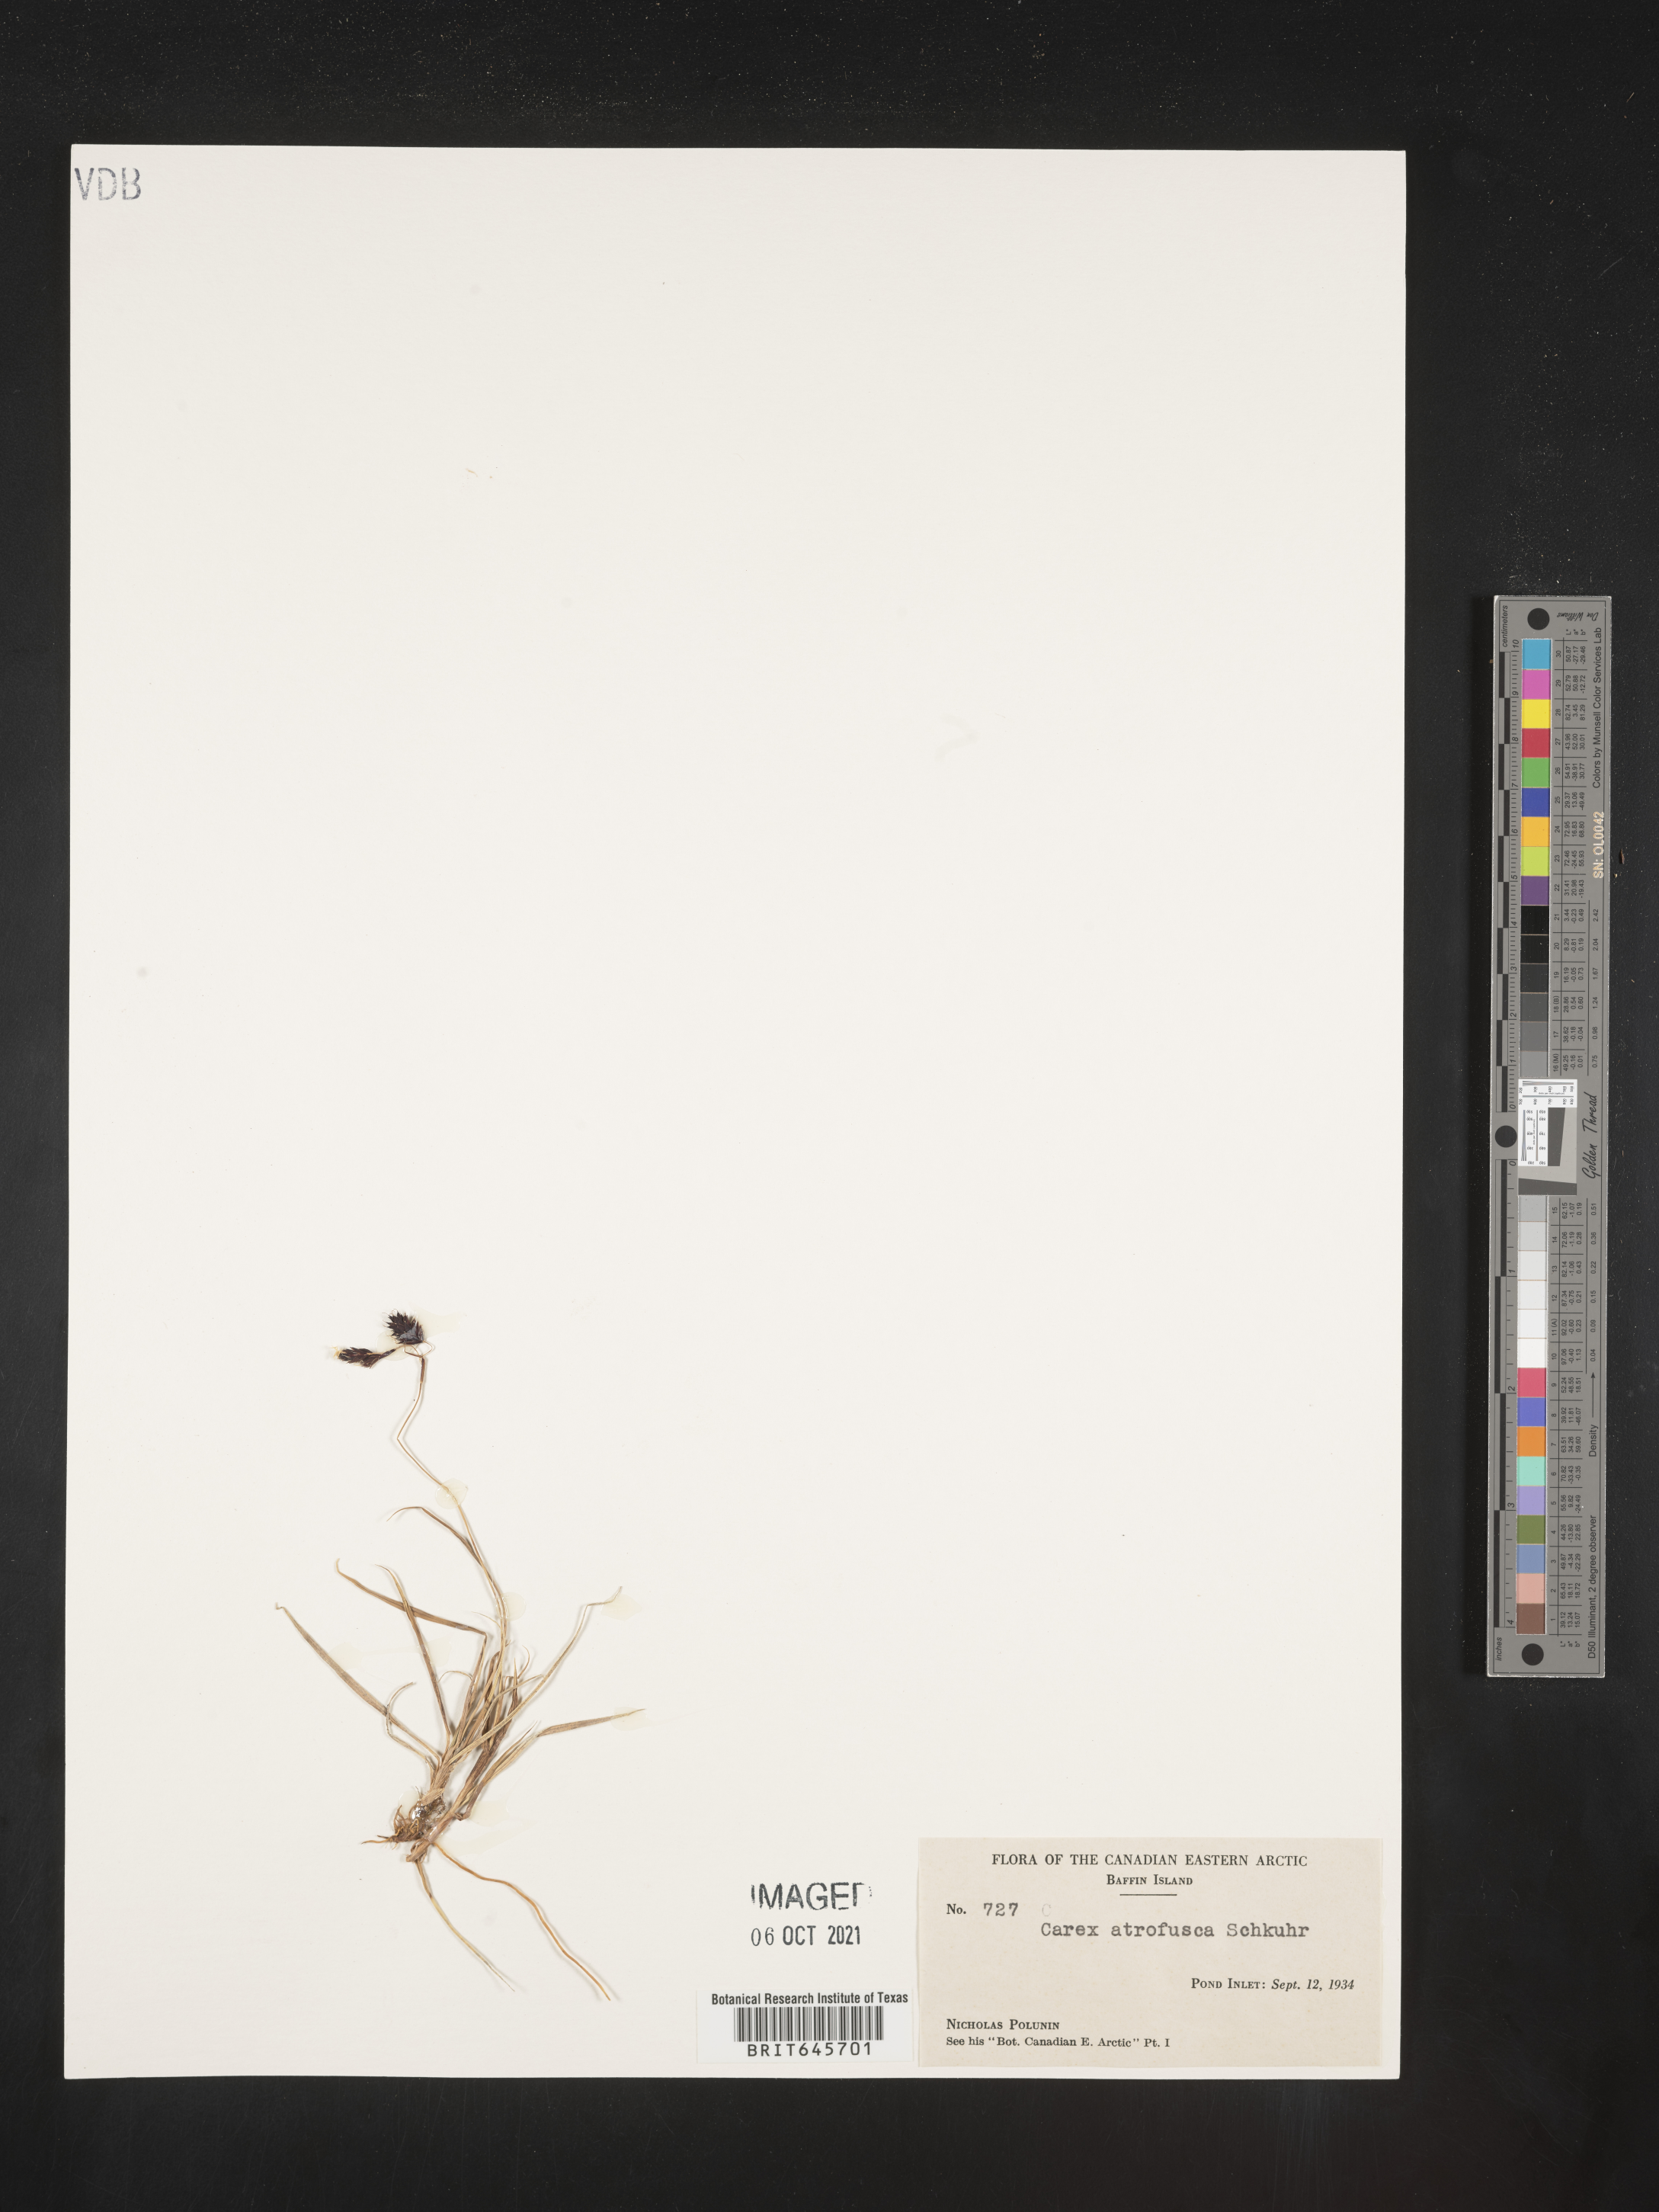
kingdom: Plantae
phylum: Tracheophyta
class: Liliopsida
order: Poales
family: Cyperaceae
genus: Carex
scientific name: Carex pichinchensis
